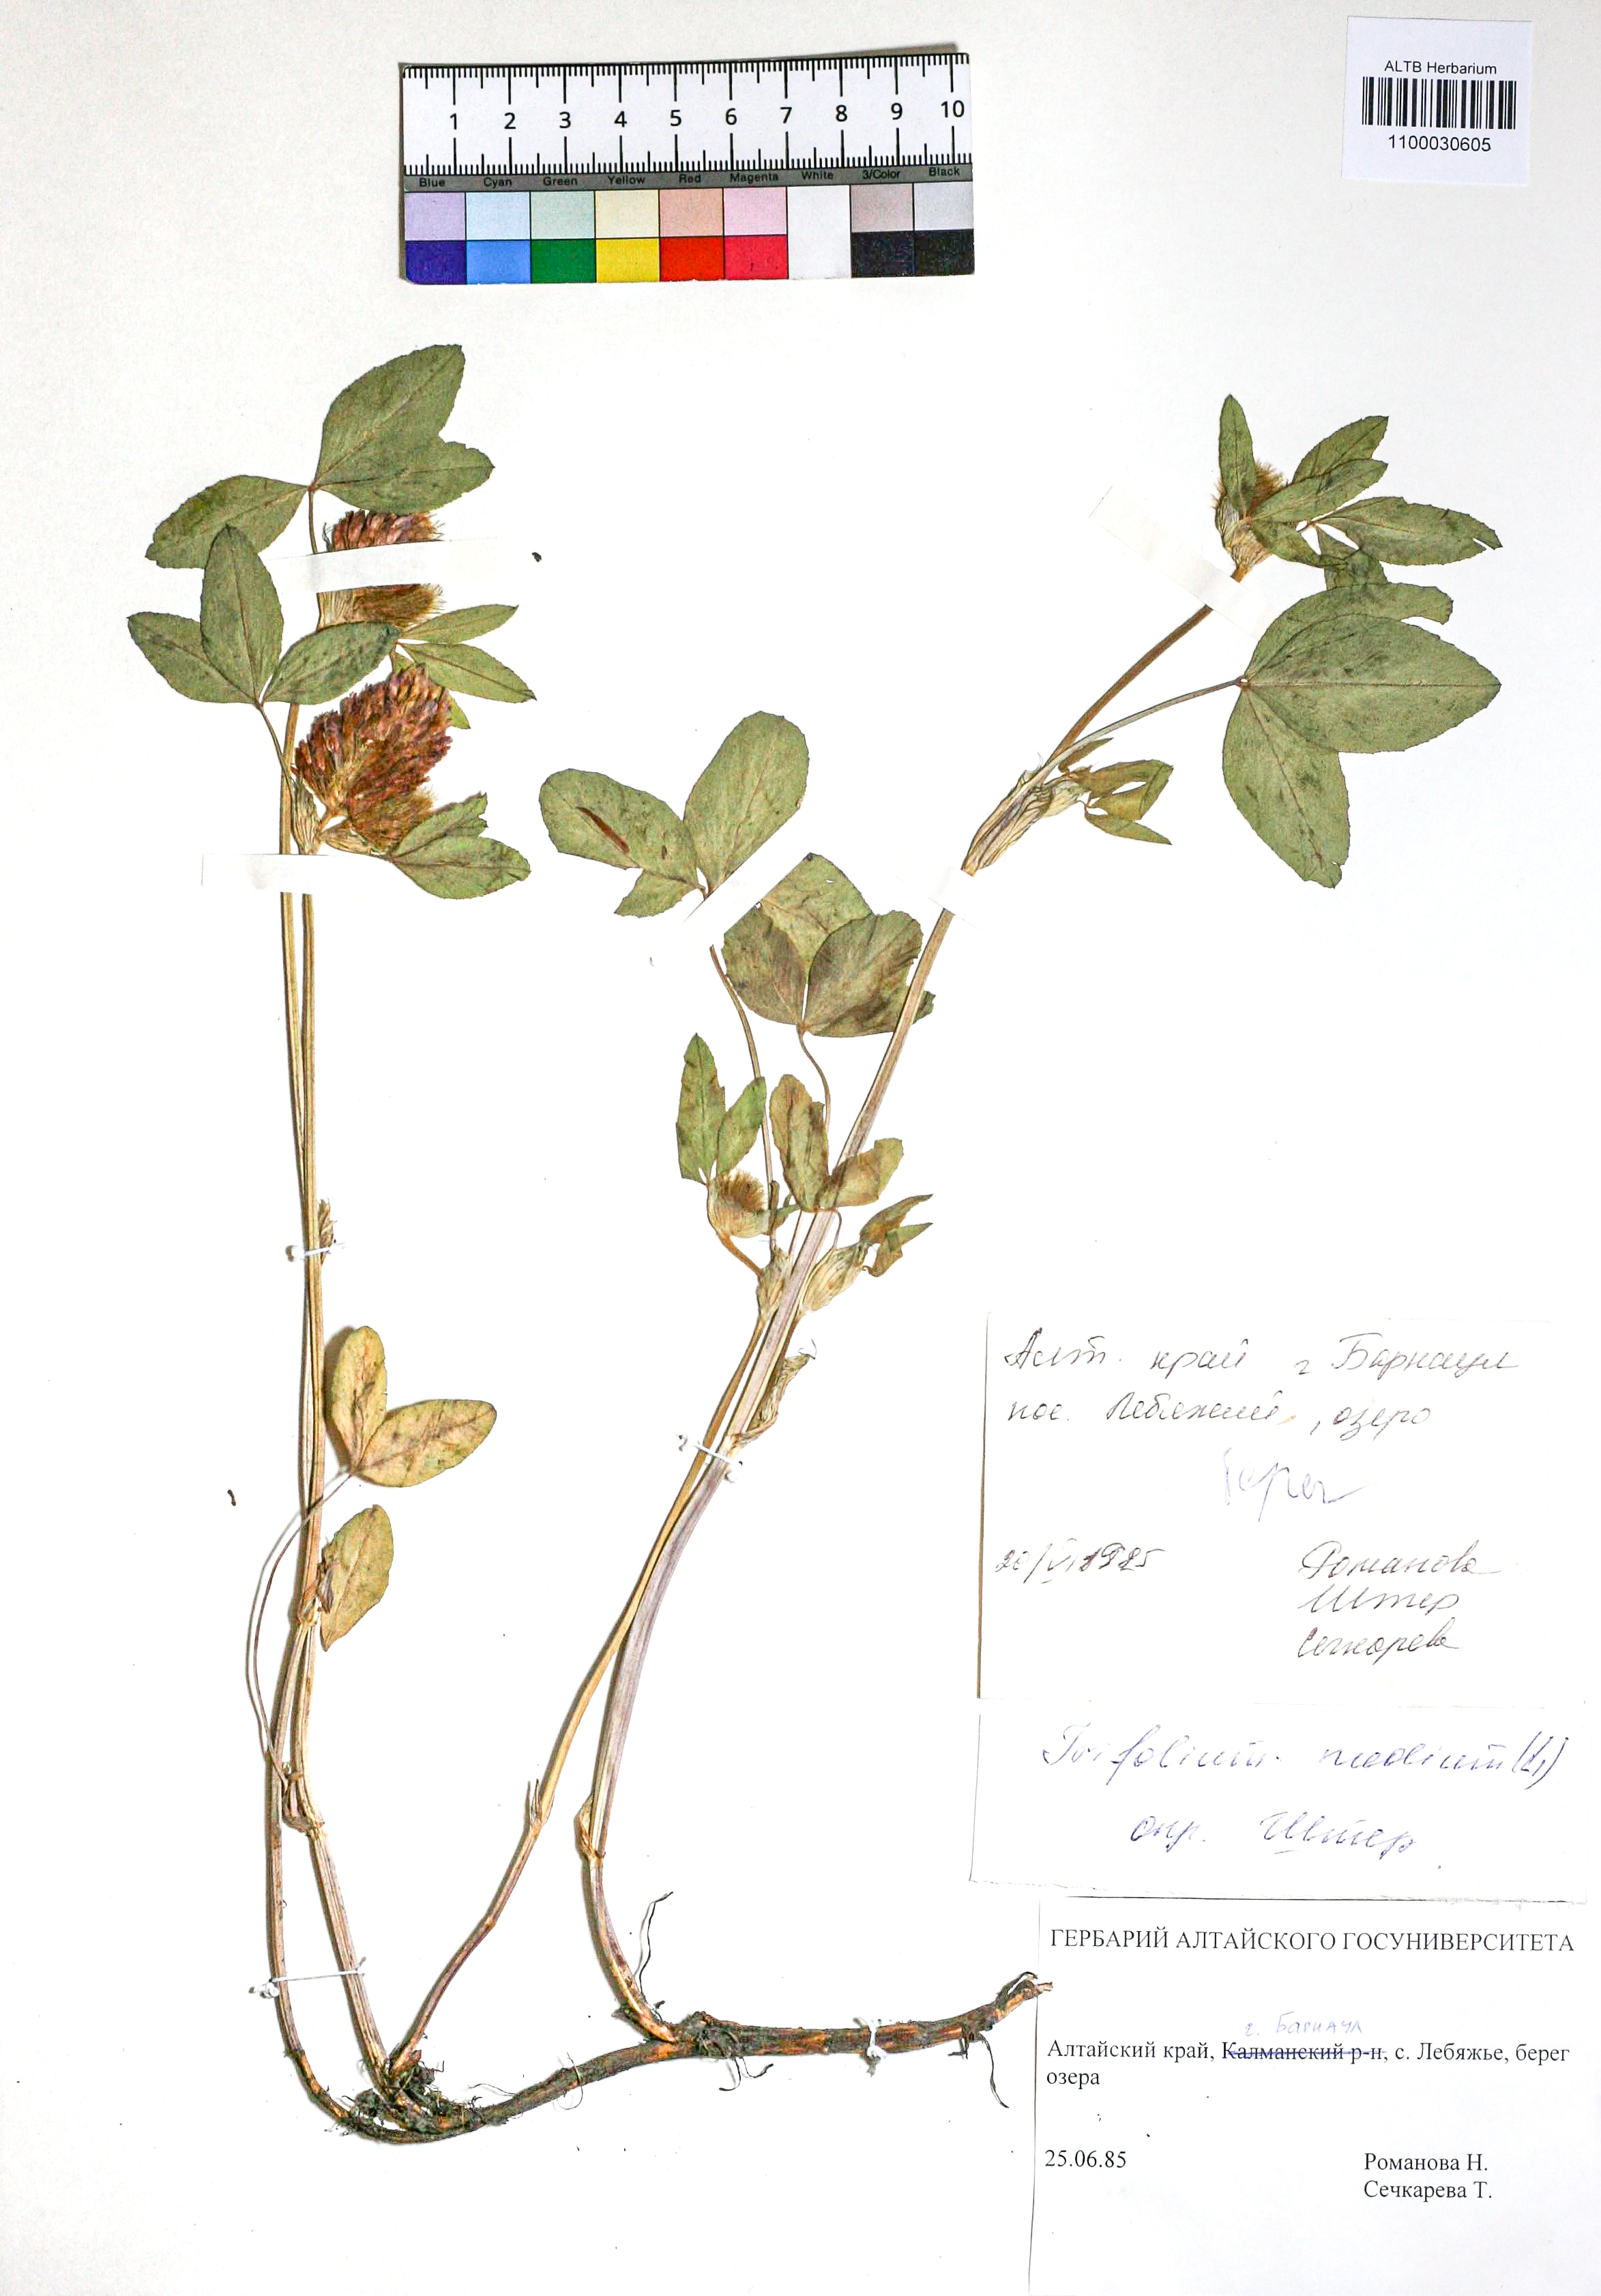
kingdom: Plantae
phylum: Tracheophyta
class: Magnoliopsida
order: Fabales
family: Fabaceae
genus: Trifolium
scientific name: Trifolium medium
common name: Zigzag clover
